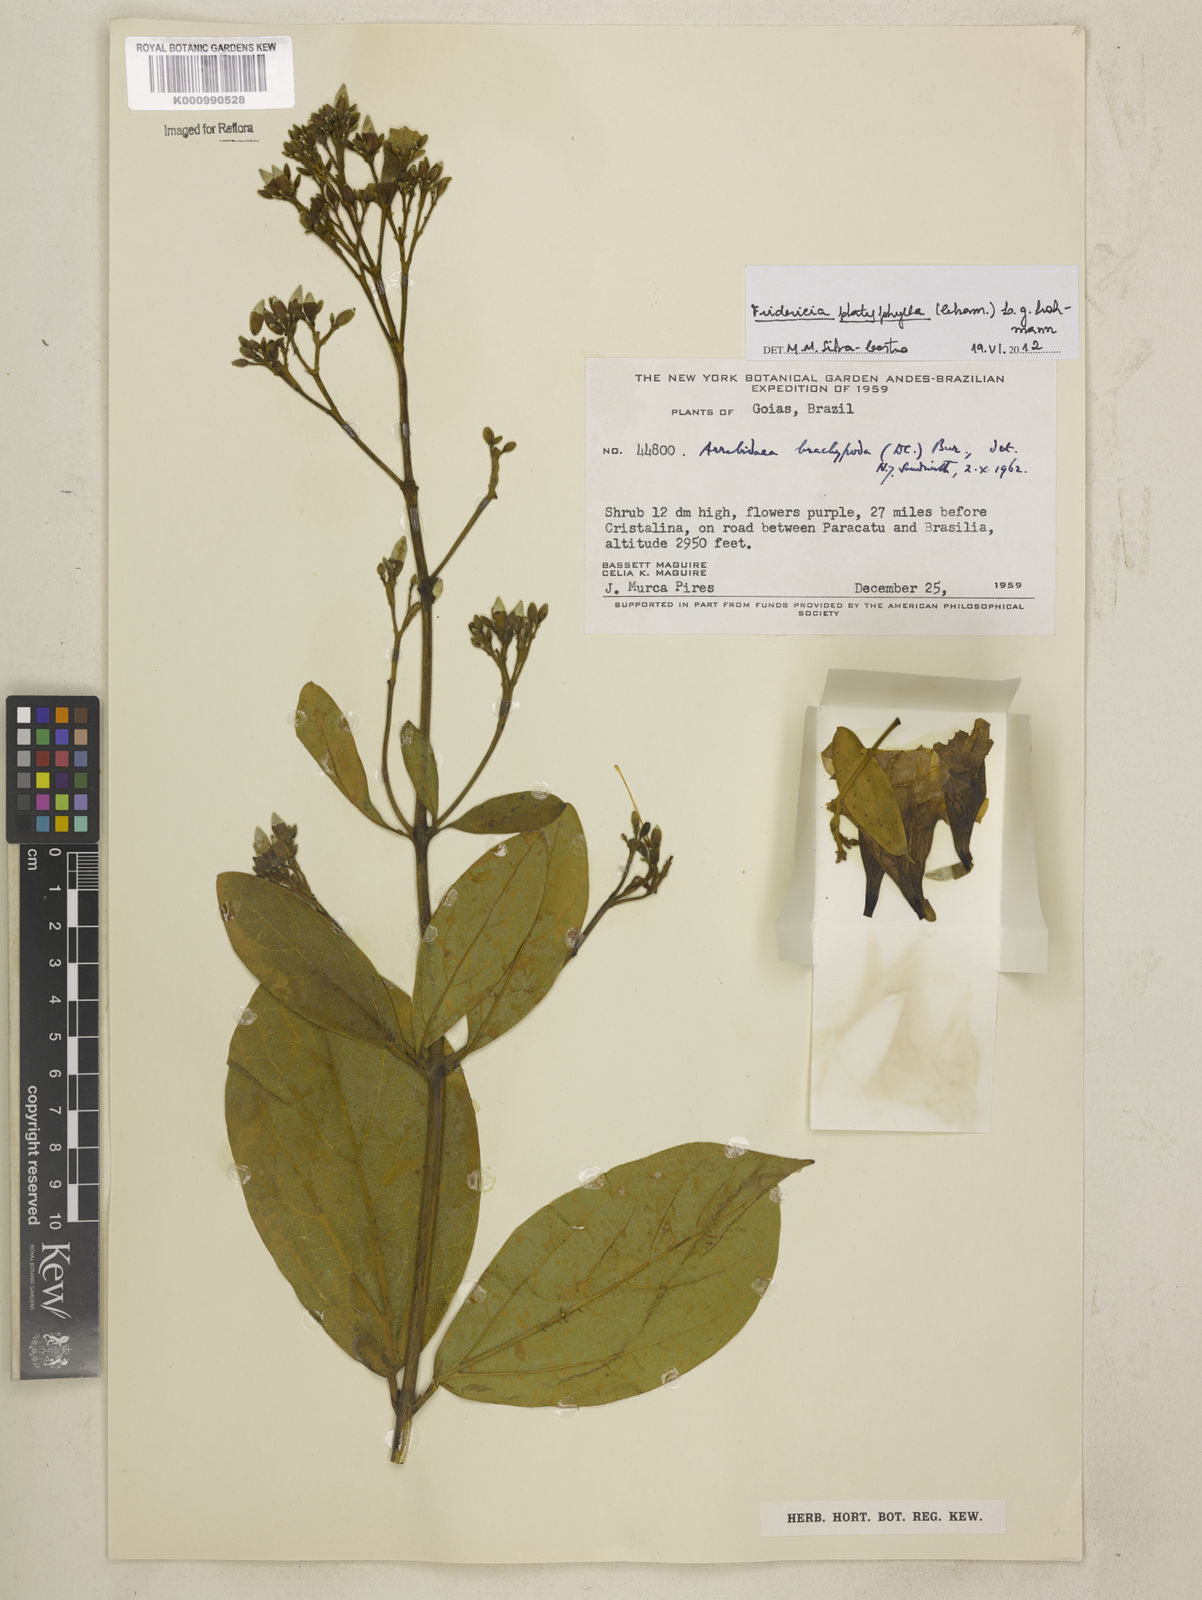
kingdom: Plantae
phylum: Tracheophyta
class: Magnoliopsida
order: Lamiales
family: Bignoniaceae
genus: Fridericia
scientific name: Fridericia platyphylla
